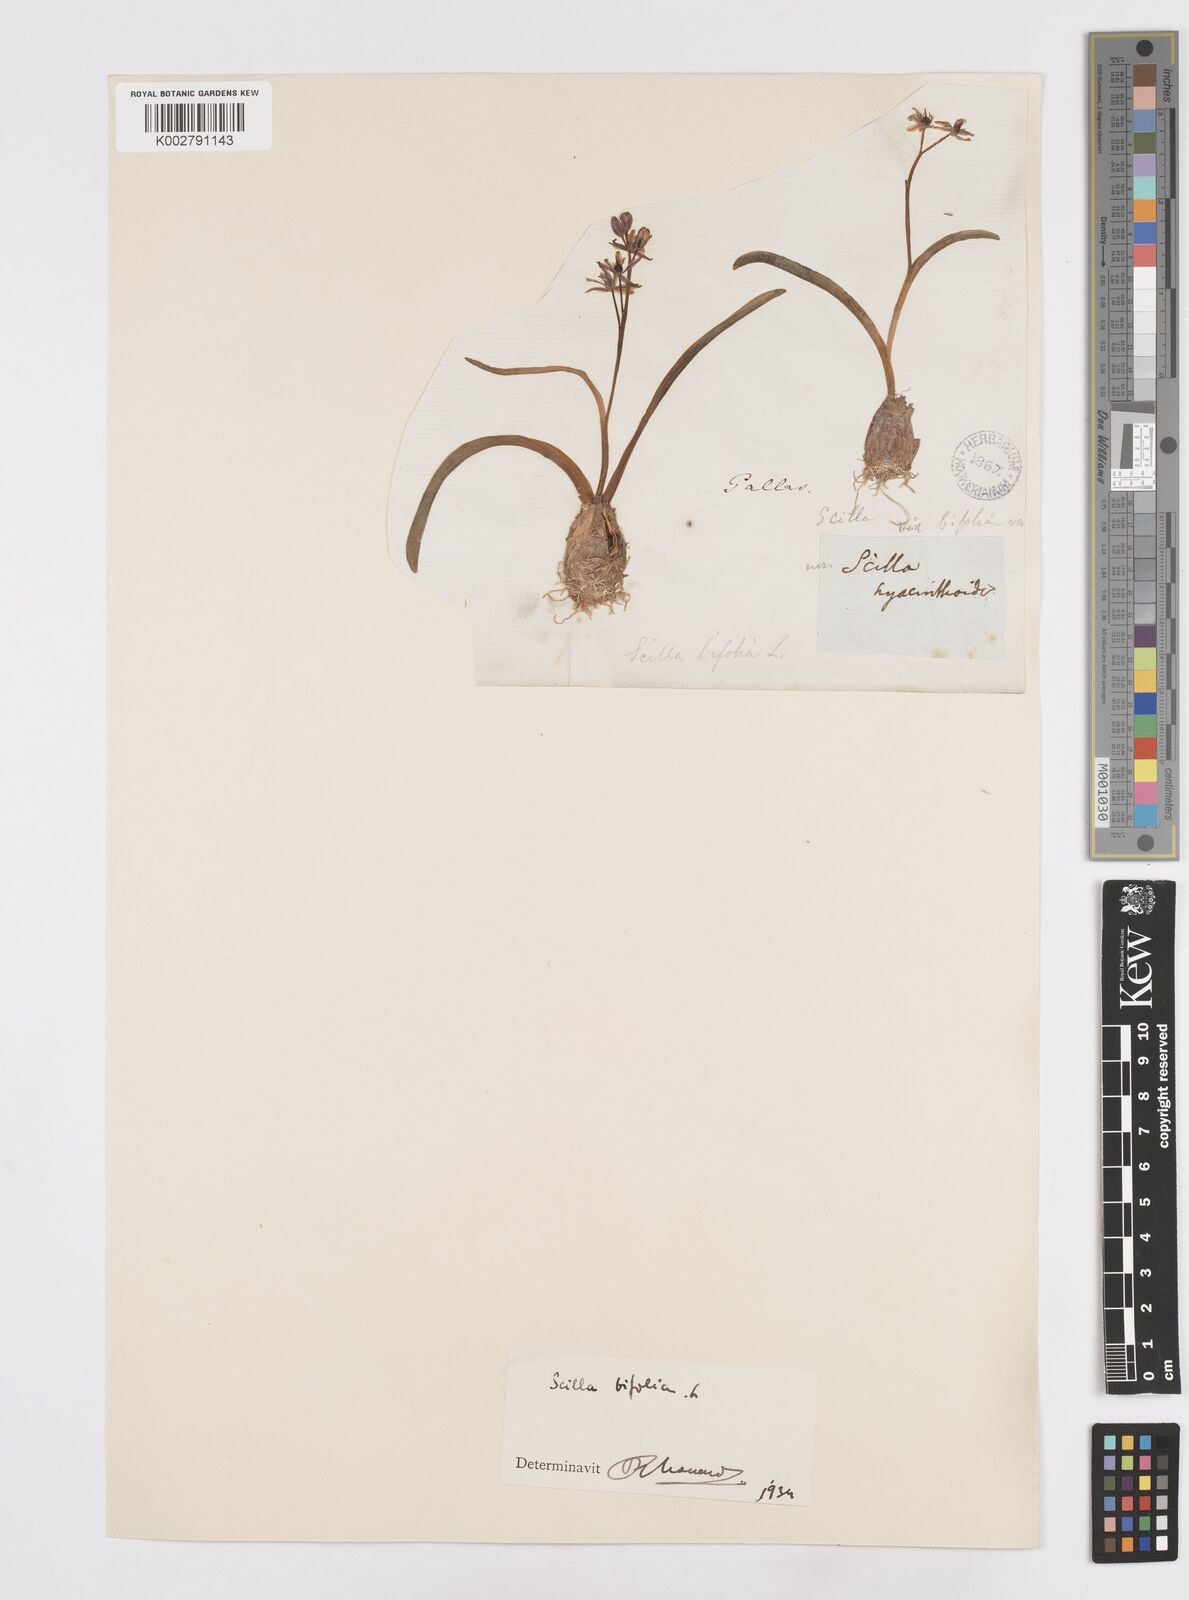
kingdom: Plantae
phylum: Tracheophyta
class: Liliopsida
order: Asparagales
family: Asparagaceae
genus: Scilla
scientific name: Scilla bifolia
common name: Alpine squill
